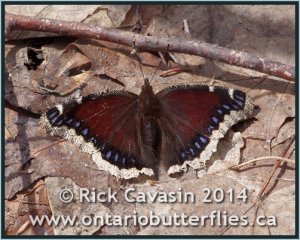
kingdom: Animalia
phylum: Arthropoda
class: Insecta
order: Lepidoptera
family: Nymphalidae
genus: Nymphalis
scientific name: Nymphalis antiopa
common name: Mourning Cloak
